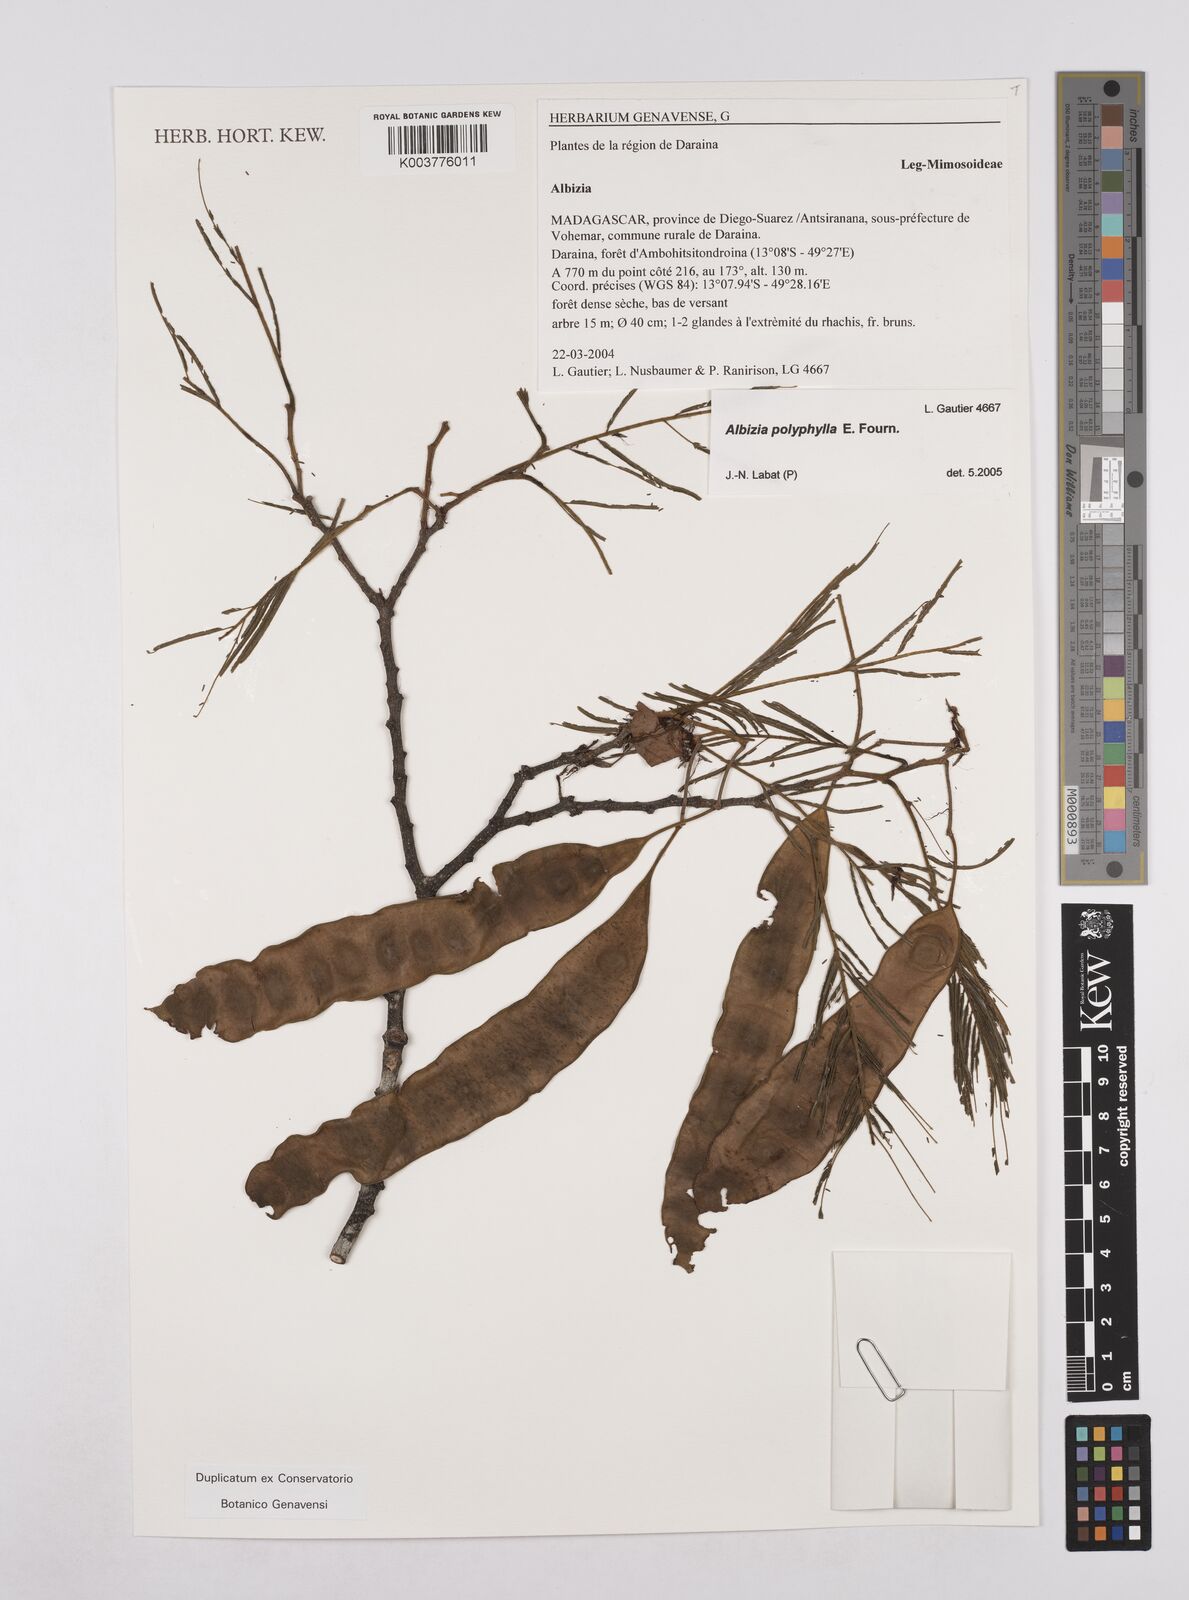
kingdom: Plantae
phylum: Tracheophyta
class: Magnoliopsida
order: Fabales
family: Fabaceae
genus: Albizia
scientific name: Albizia polyphylla
